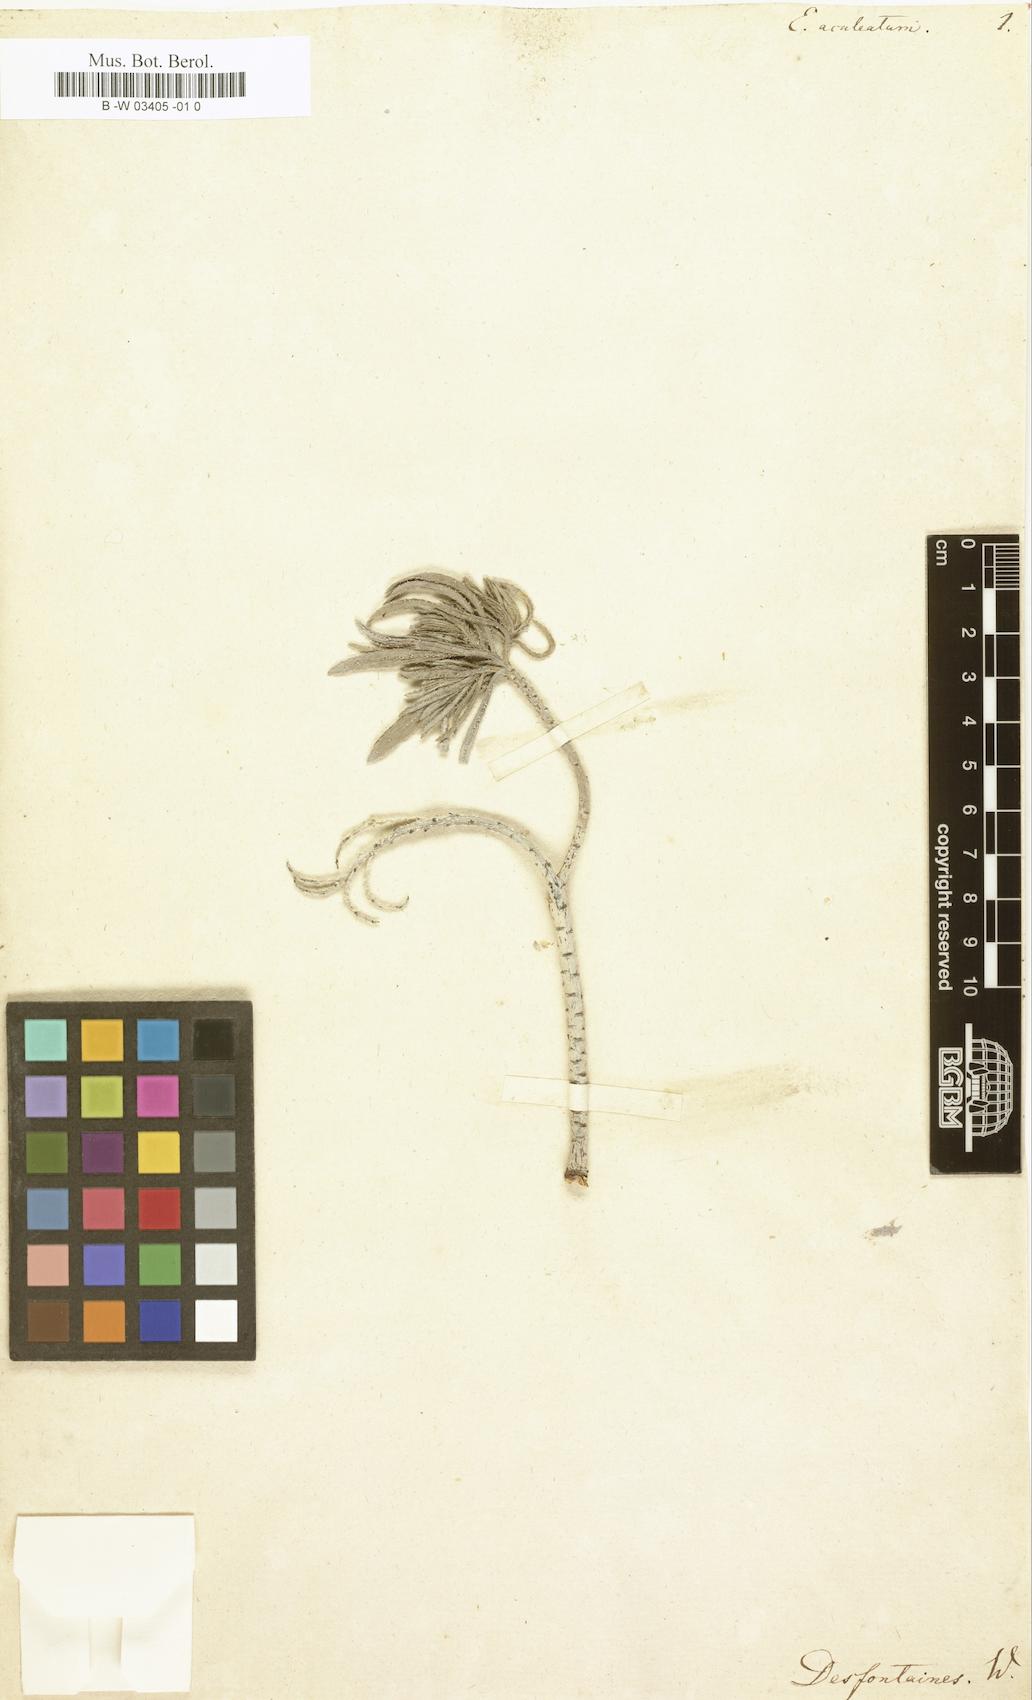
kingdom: Plantae
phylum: Tracheophyta
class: Magnoliopsida
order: Boraginales
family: Boraginaceae
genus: Echium
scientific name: Echium aculeatum
